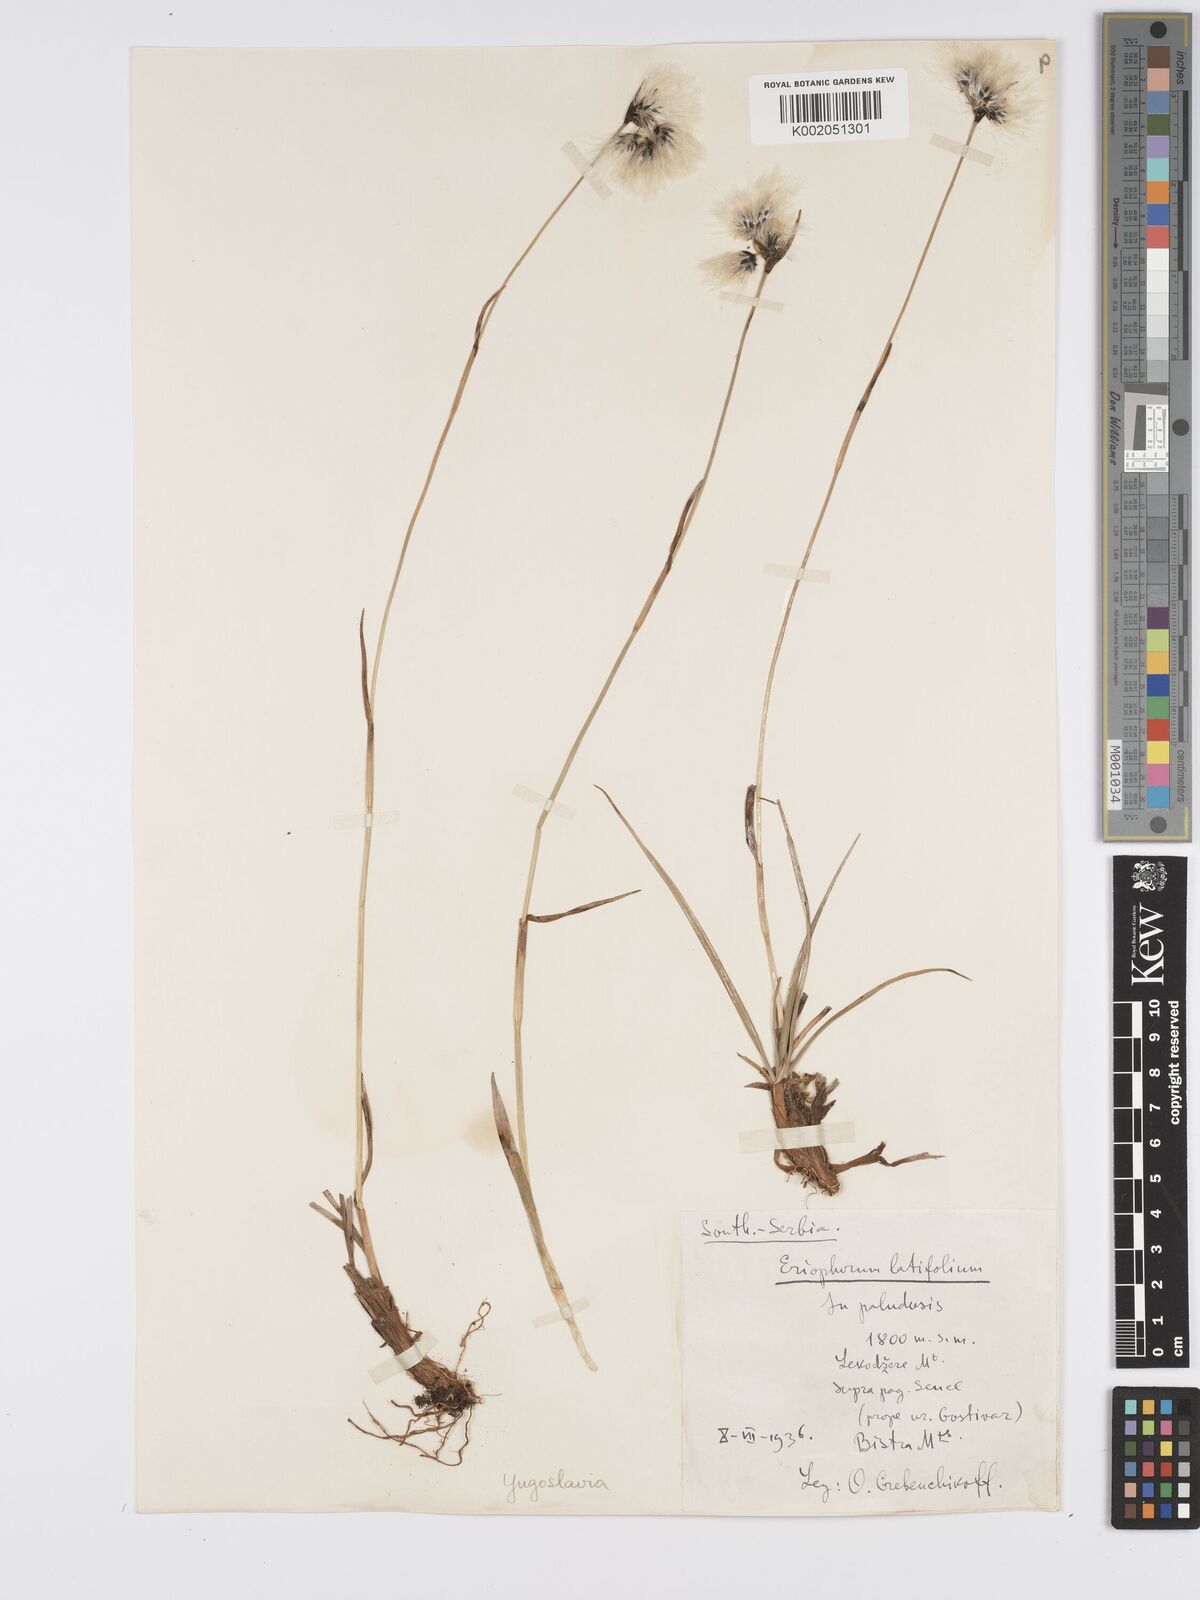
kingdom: Plantae
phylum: Tracheophyta
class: Liliopsida
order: Poales
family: Cyperaceae
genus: Eriophorum
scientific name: Eriophorum latifolium
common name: Broad-leaved cottongrass
